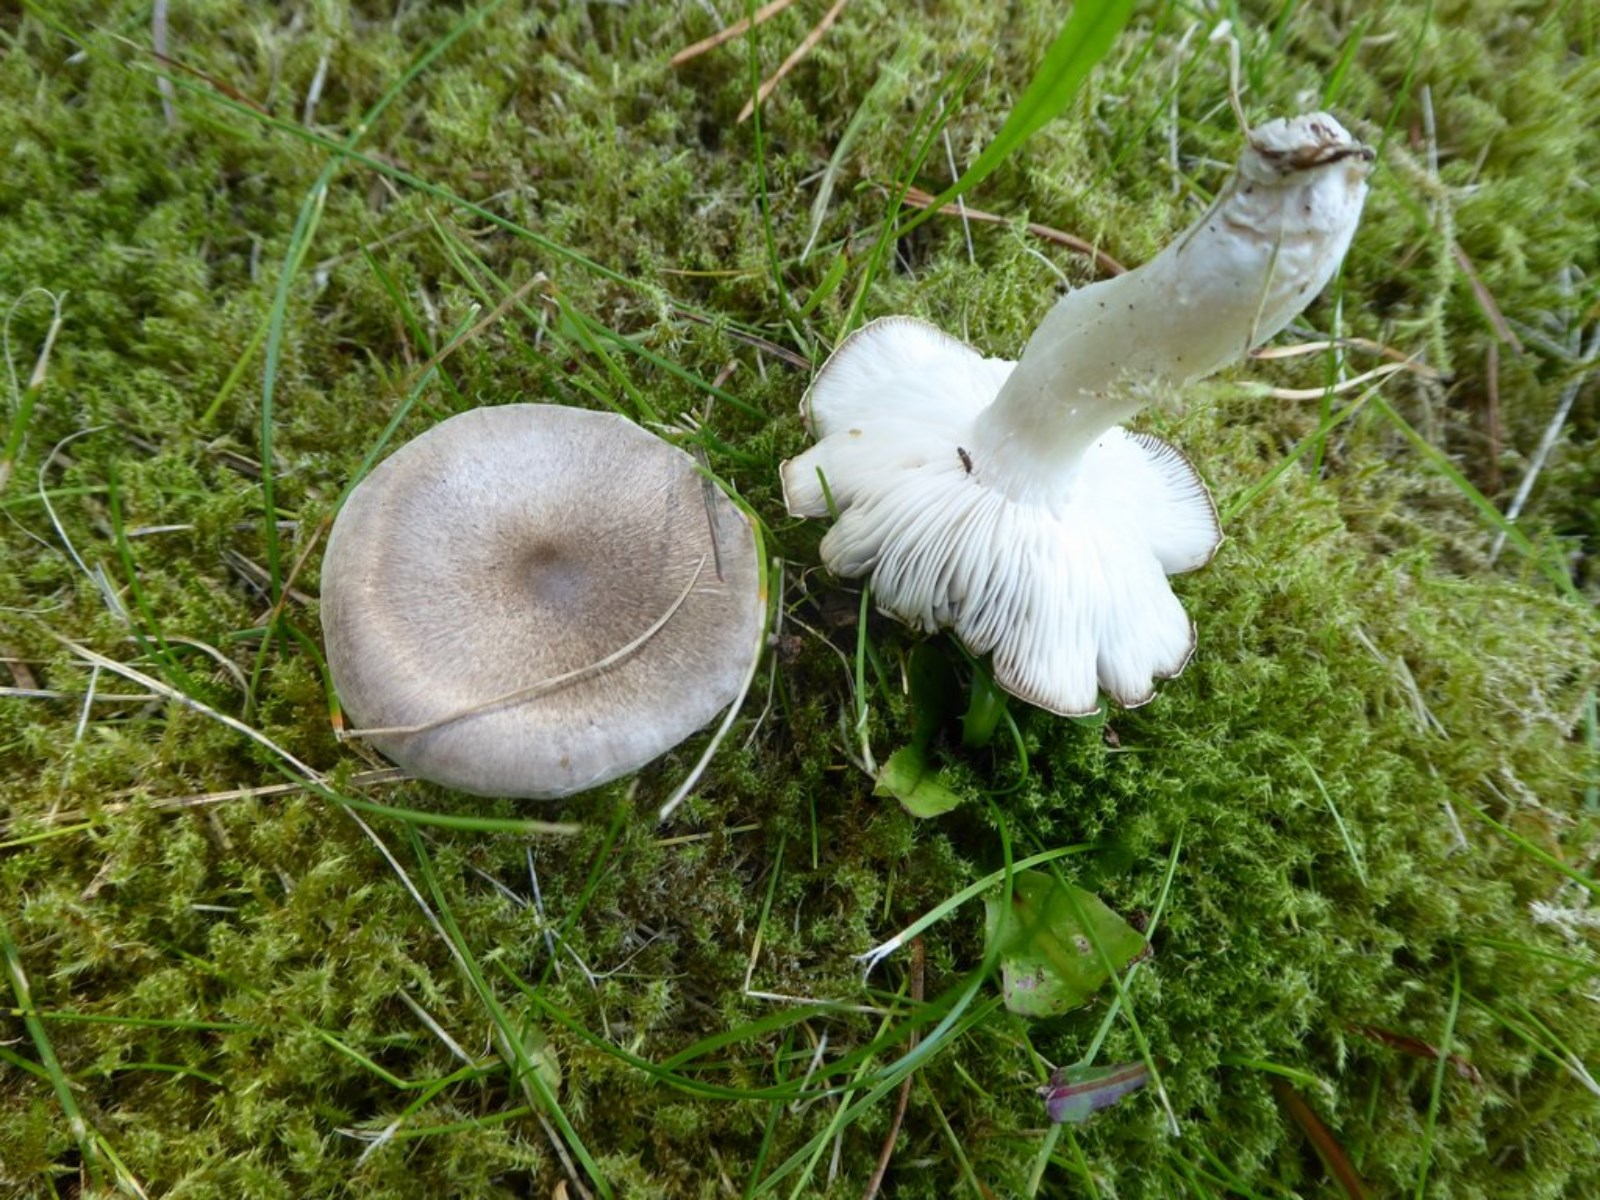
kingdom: Fungi
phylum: Basidiomycota
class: Agaricomycetes
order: Agaricales
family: Tricholomataceae
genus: Tricholoma
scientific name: Tricholoma
